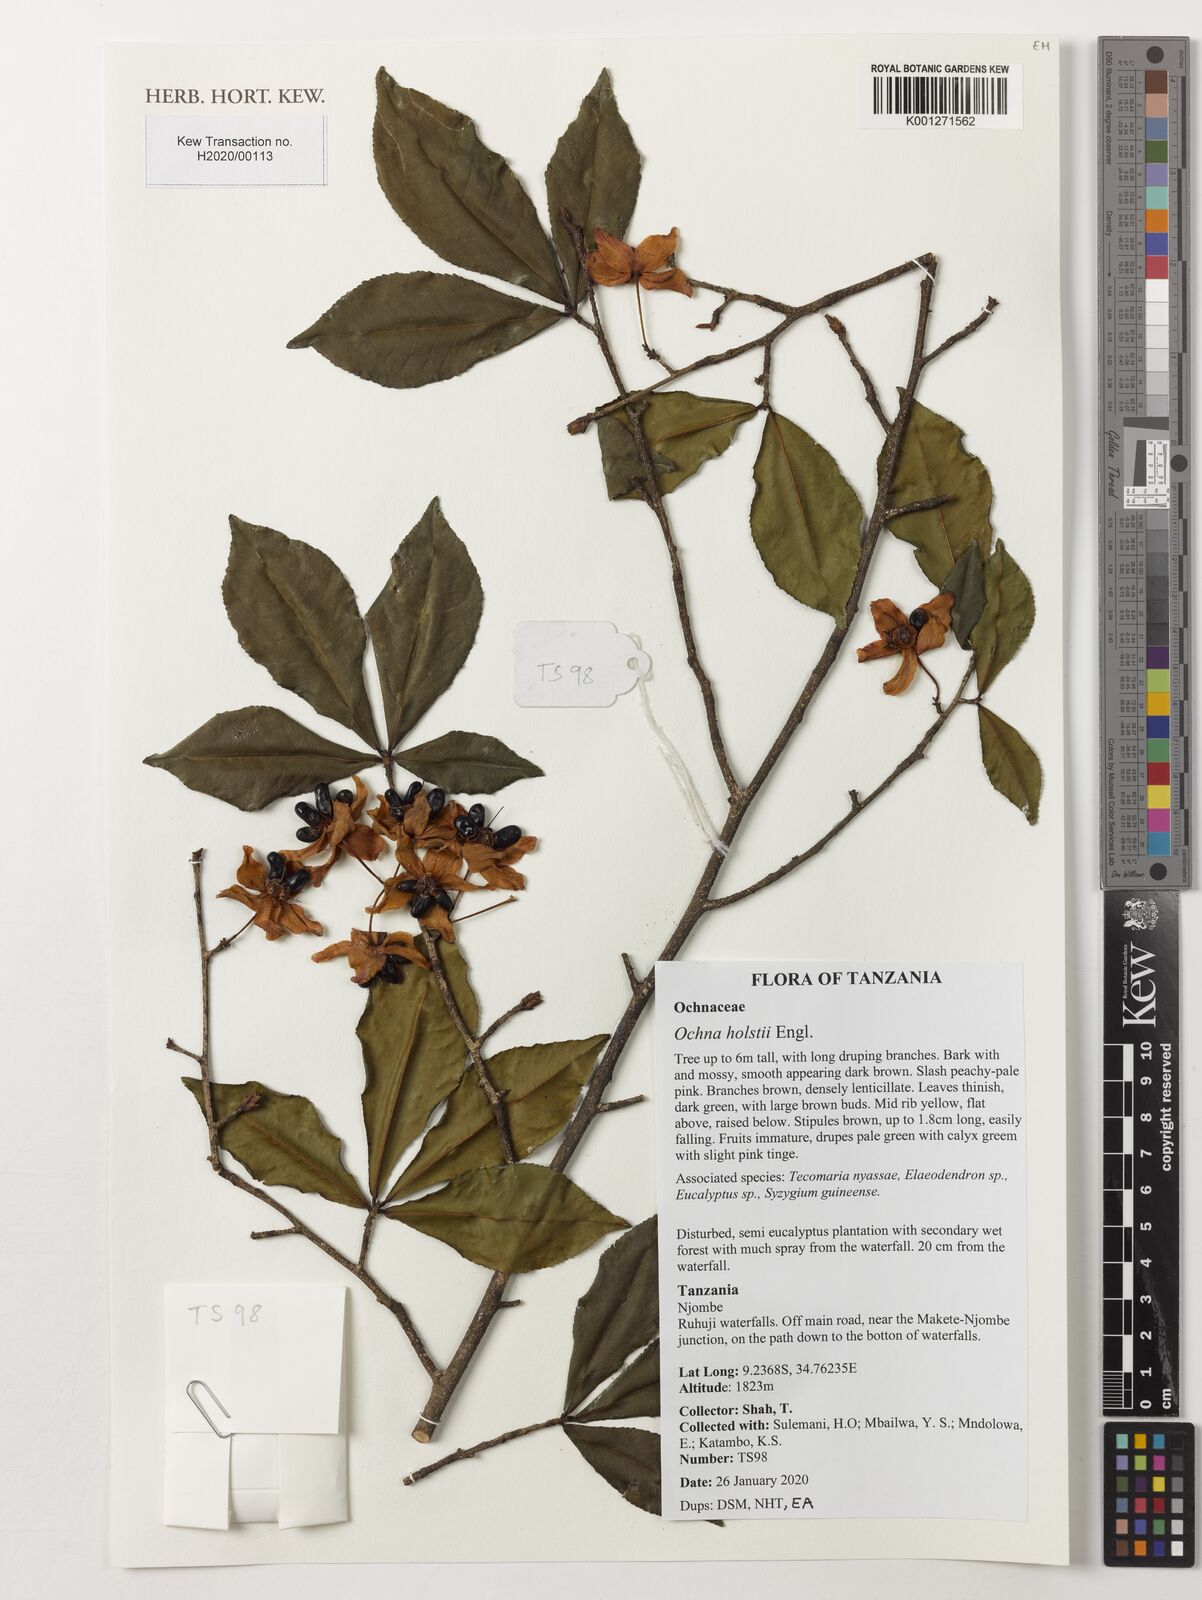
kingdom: Plantae
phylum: Tracheophyta
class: Magnoliopsida
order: Malpighiales
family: Ochnaceae
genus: Ochna
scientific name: Ochna holstii
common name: Red ironwood
